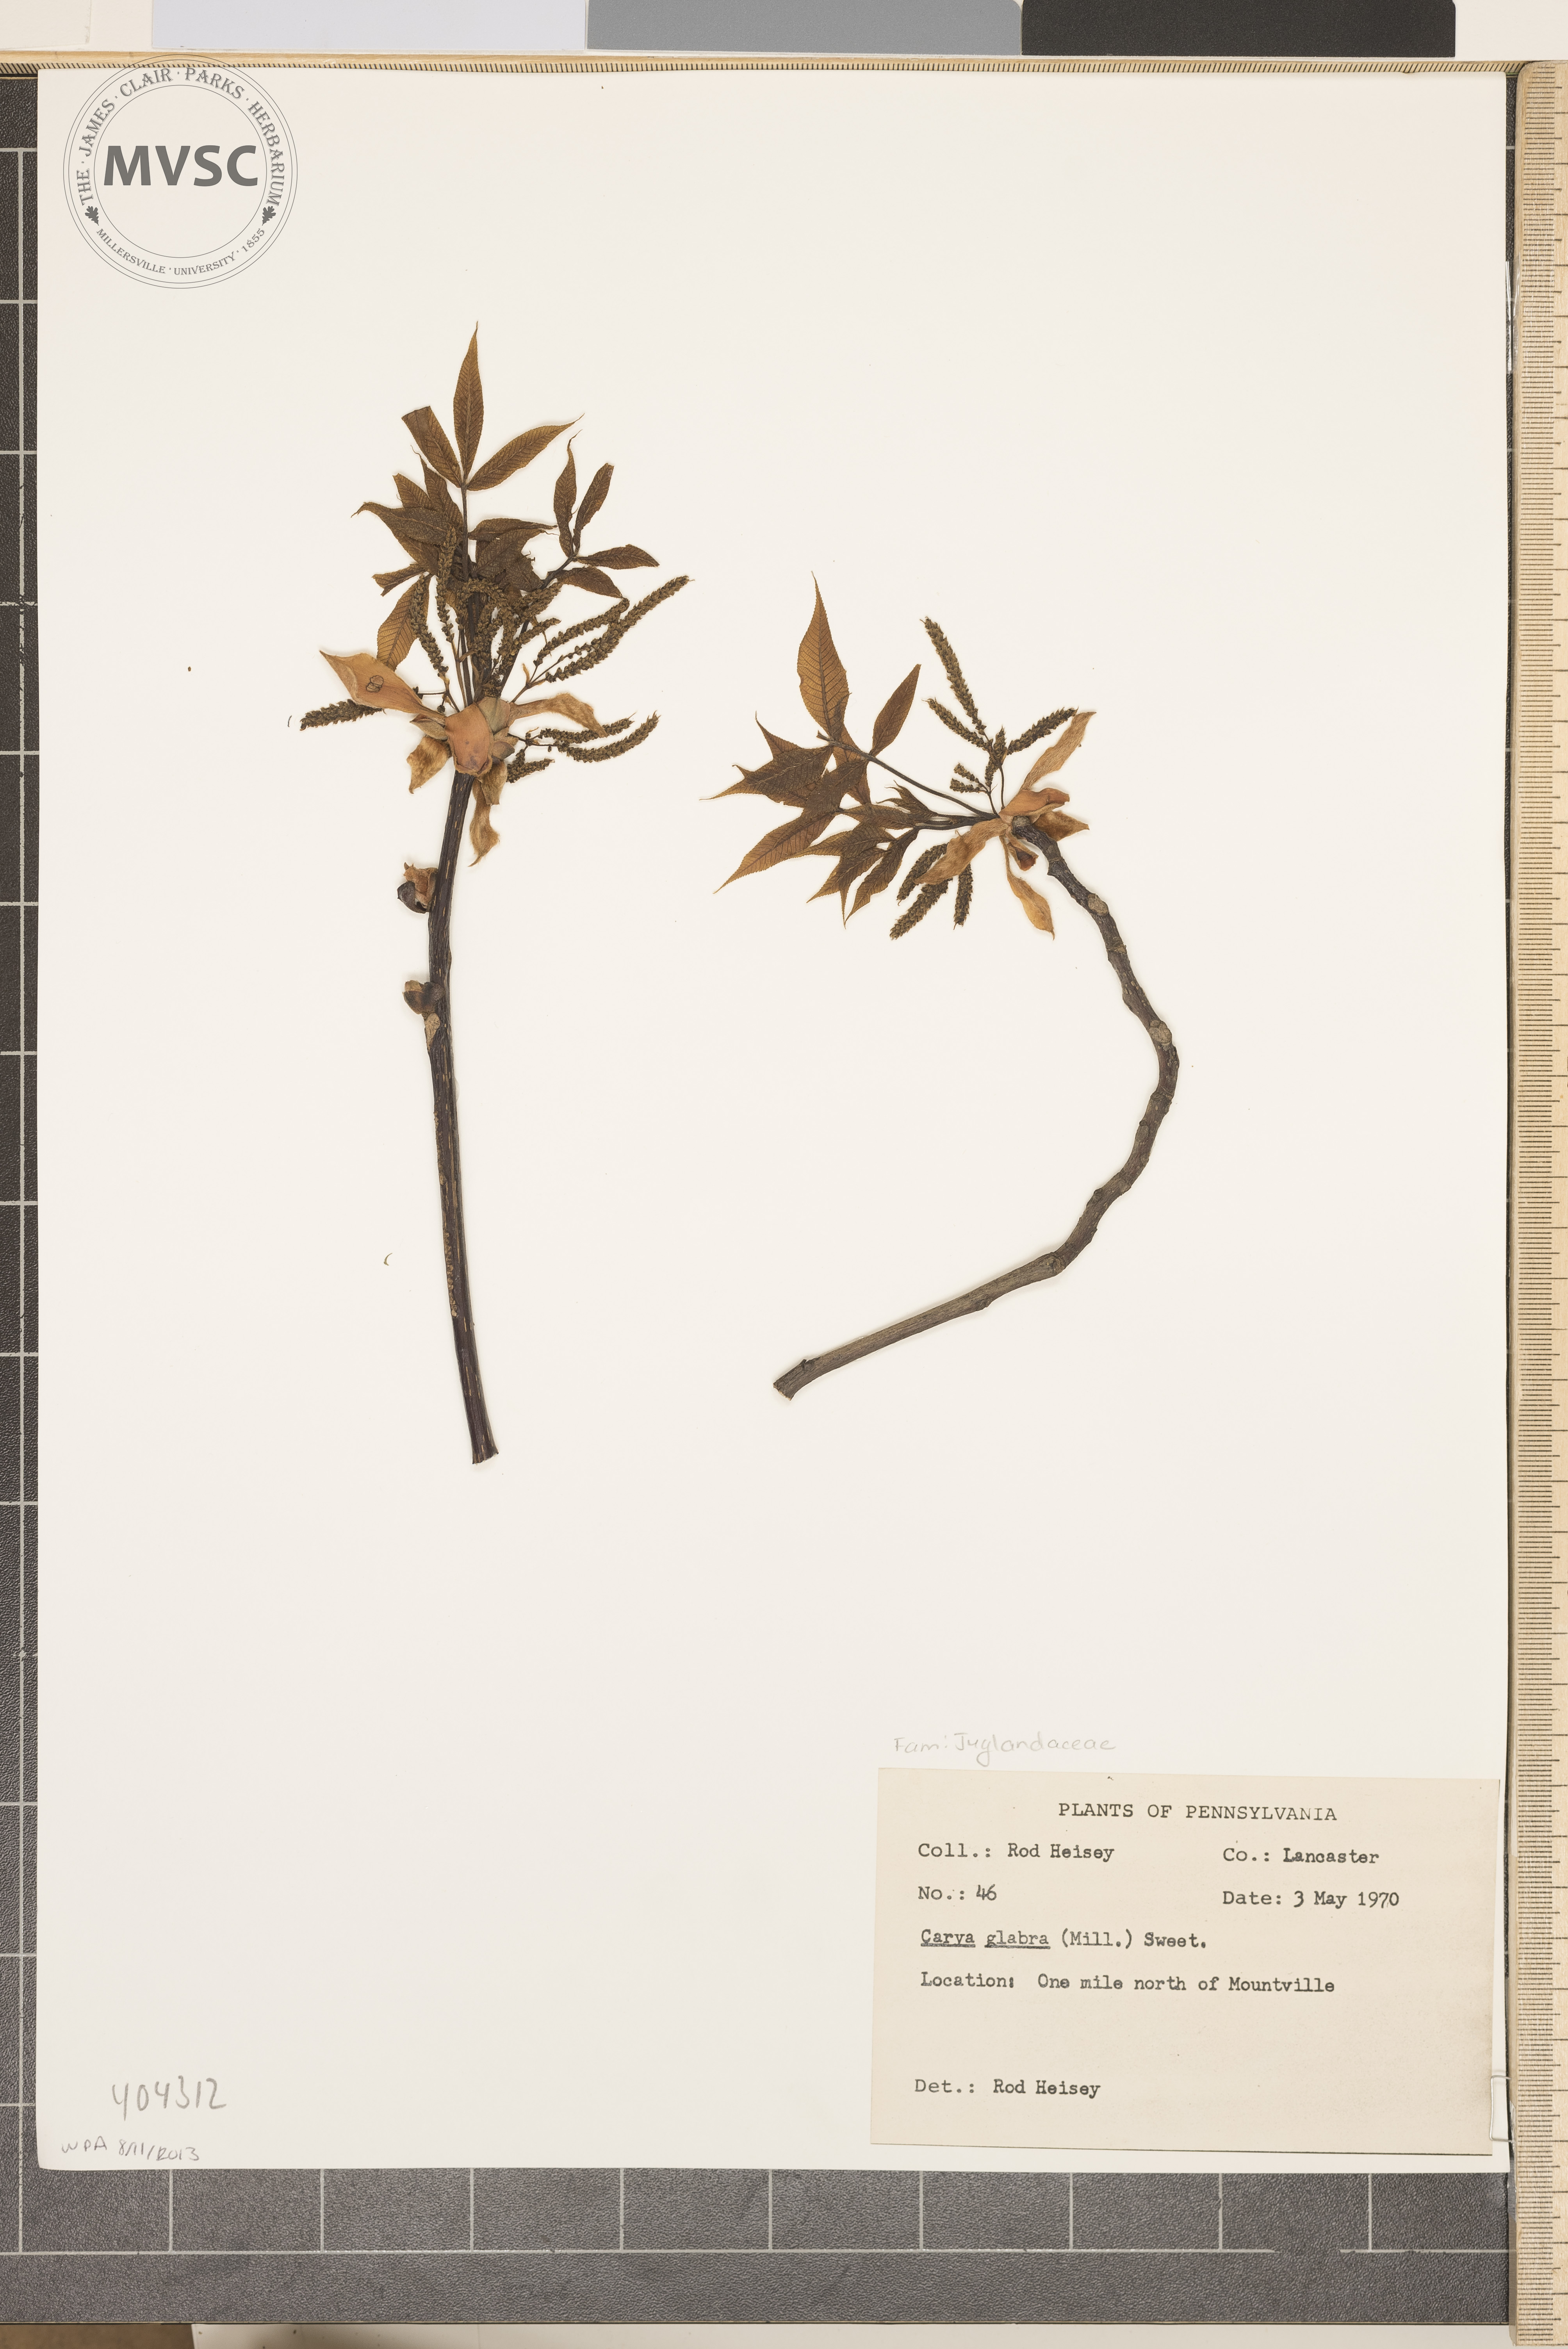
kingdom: Plantae
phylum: Tracheophyta
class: Magnoliopsida
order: Fagales
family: Juglandaceae
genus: Carya
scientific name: Carya glabra
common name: Pignut hickory
